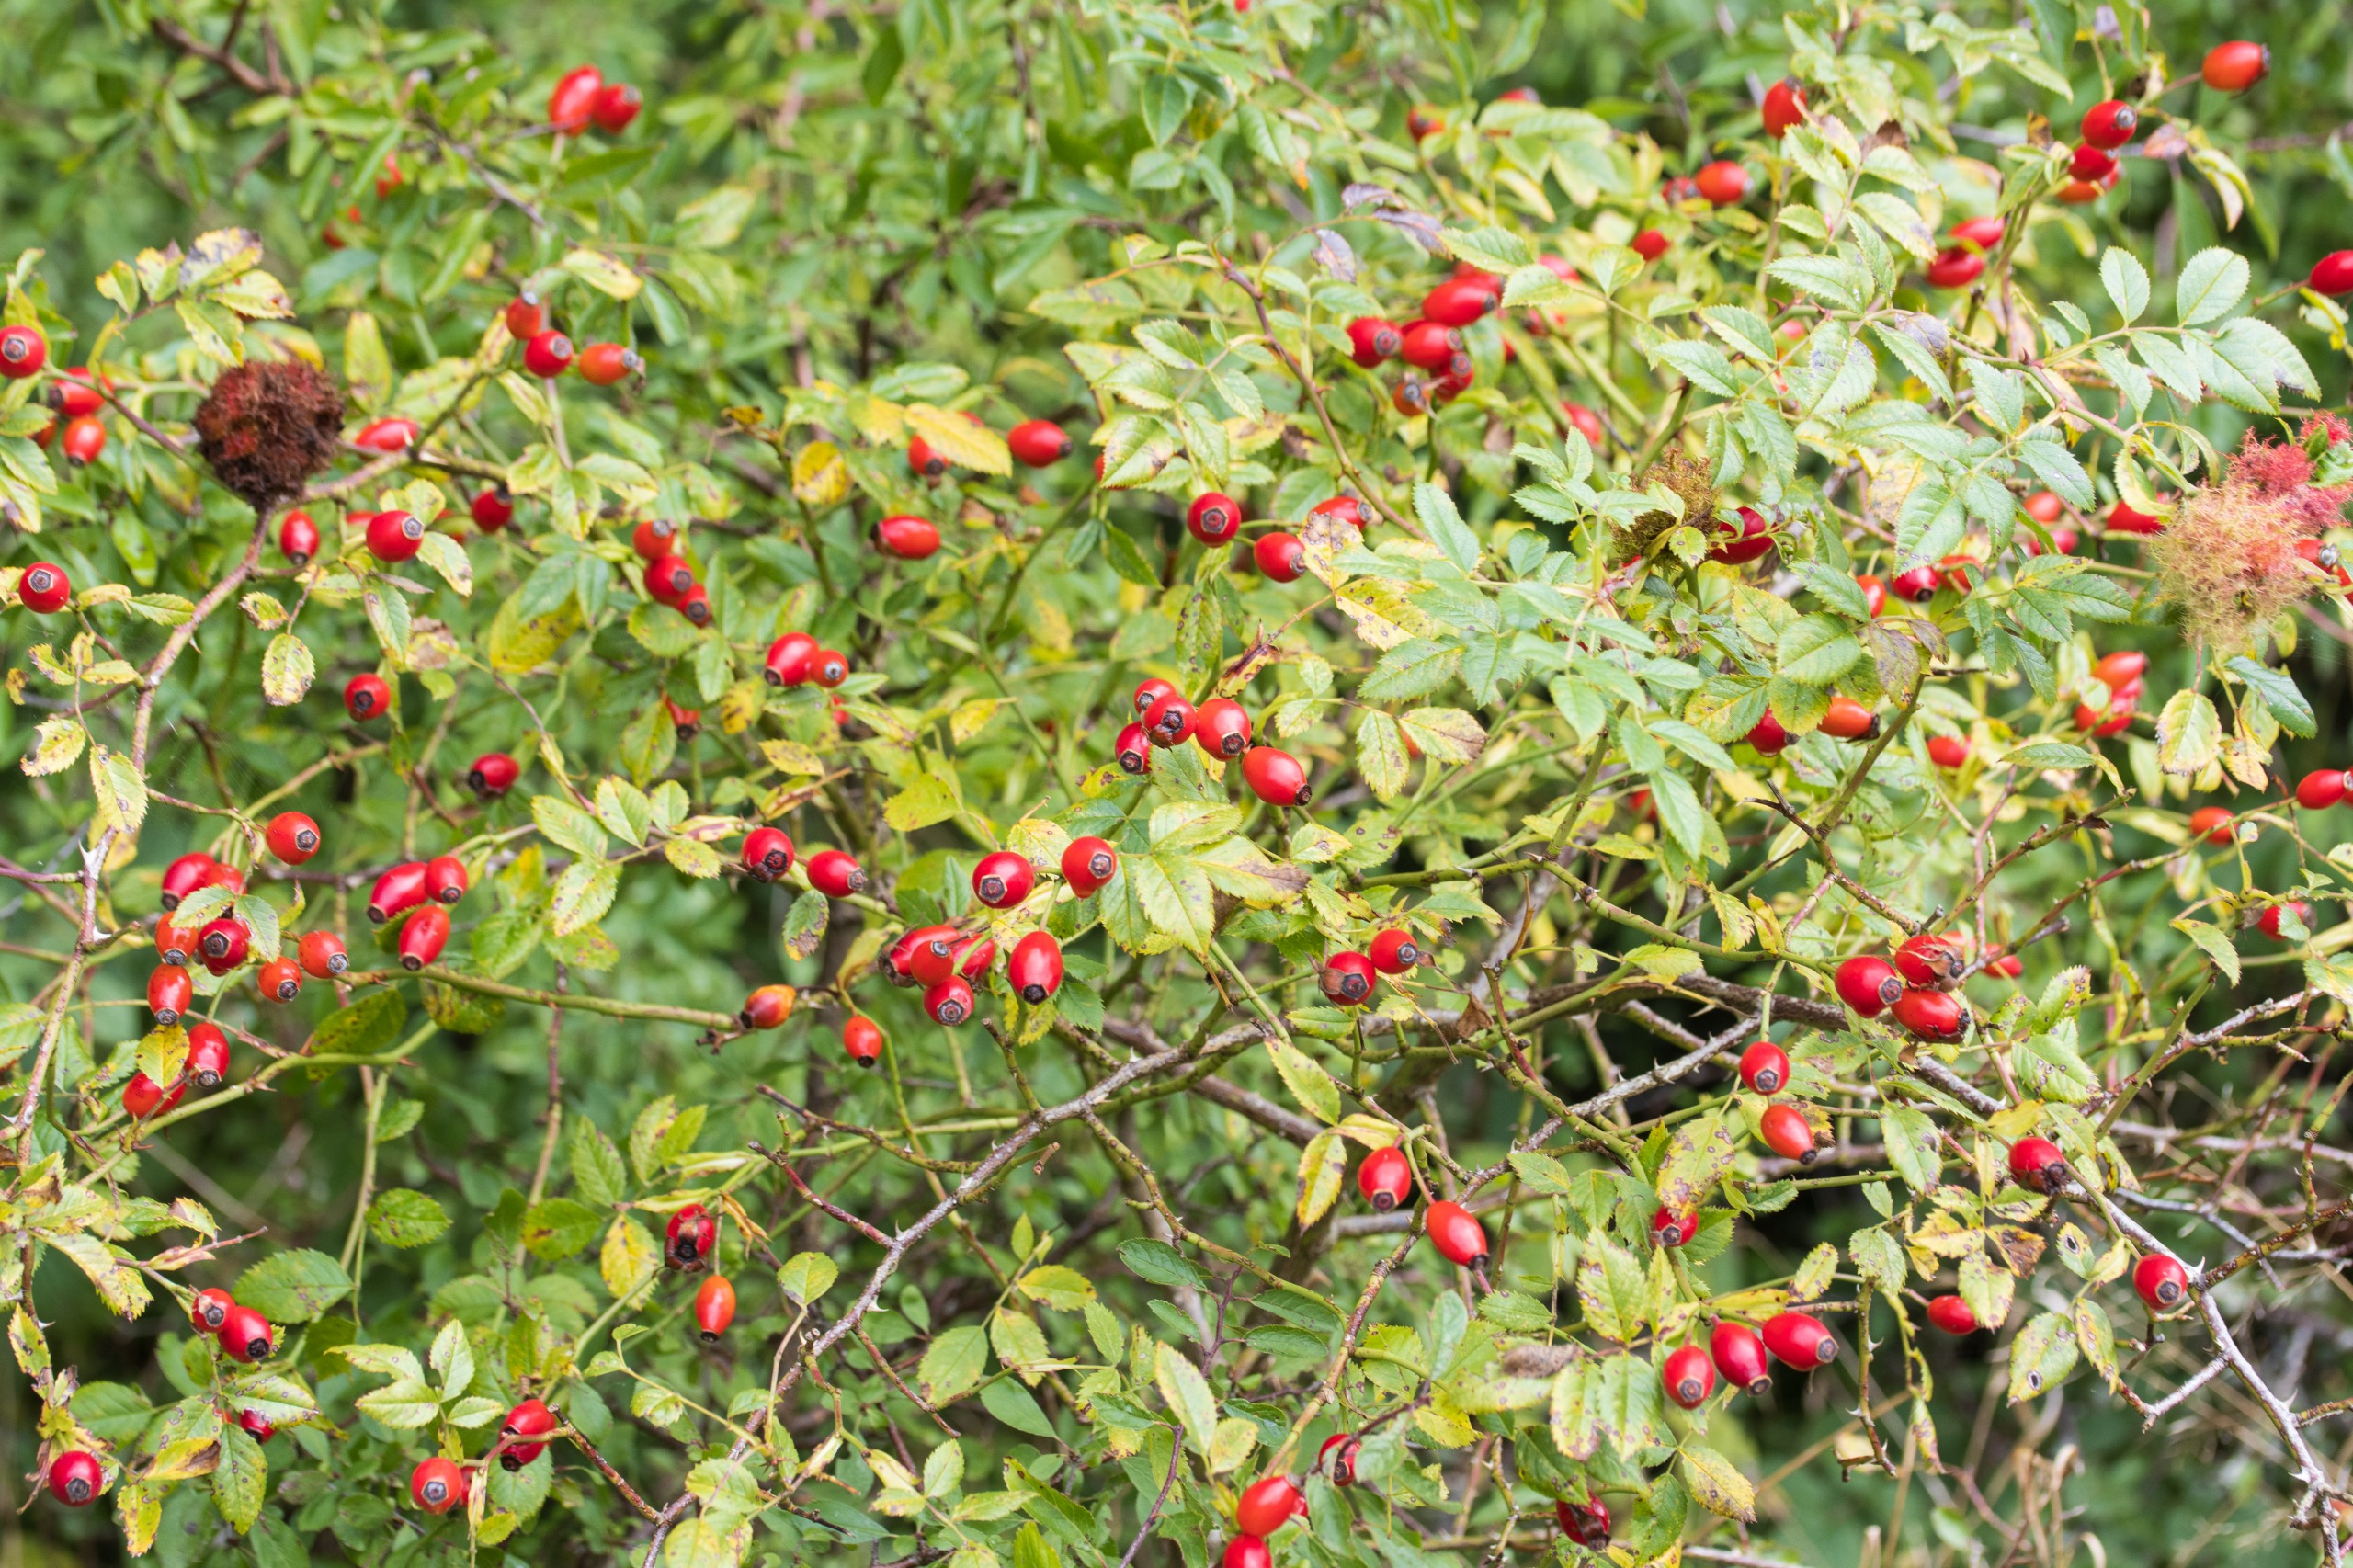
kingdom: Plantae
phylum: Tracheophyta
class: Magnoliopsida
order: Rosales
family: Rosaceae
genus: Rosa
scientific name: Rosa canina
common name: Hunde-rose
